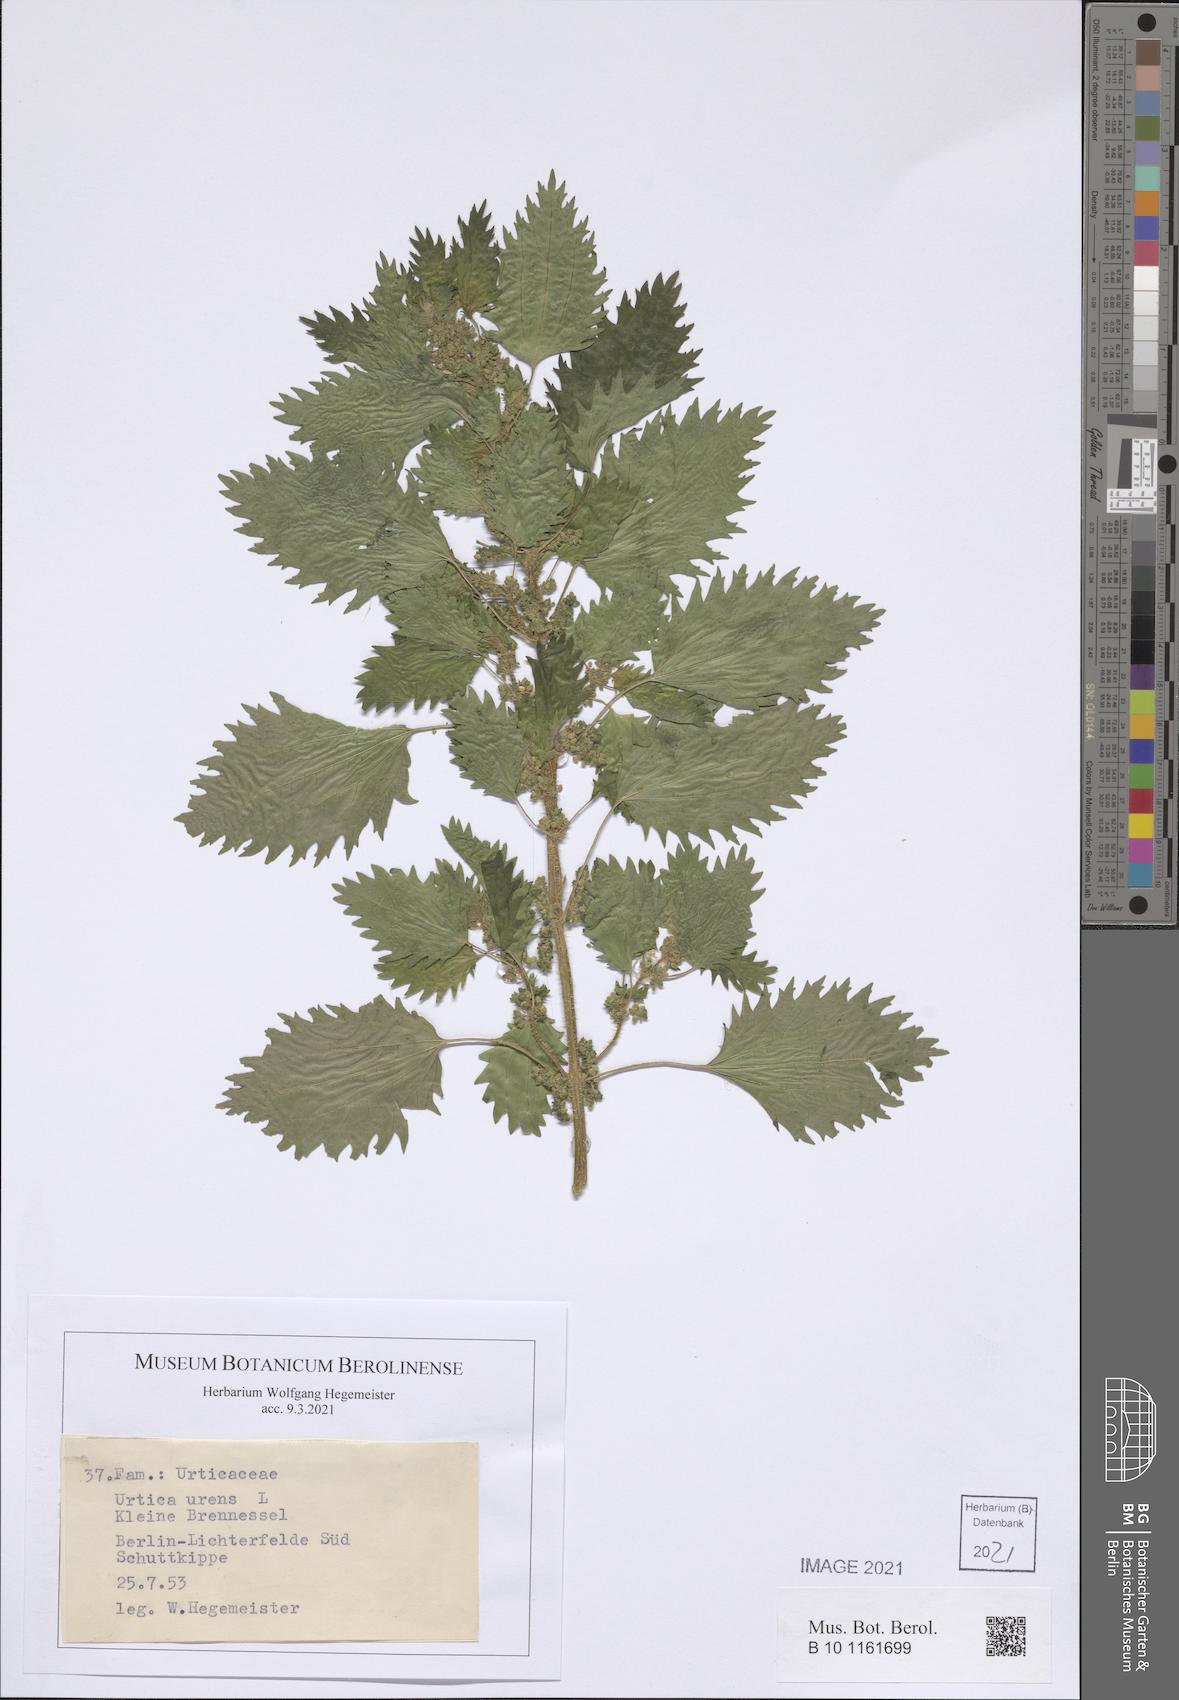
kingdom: Plantae
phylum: Tracheophyta
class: Magnoliopsida
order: Rosales
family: Urticaceae
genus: Urtica
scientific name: Urtica urens
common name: Dwarf nettle
